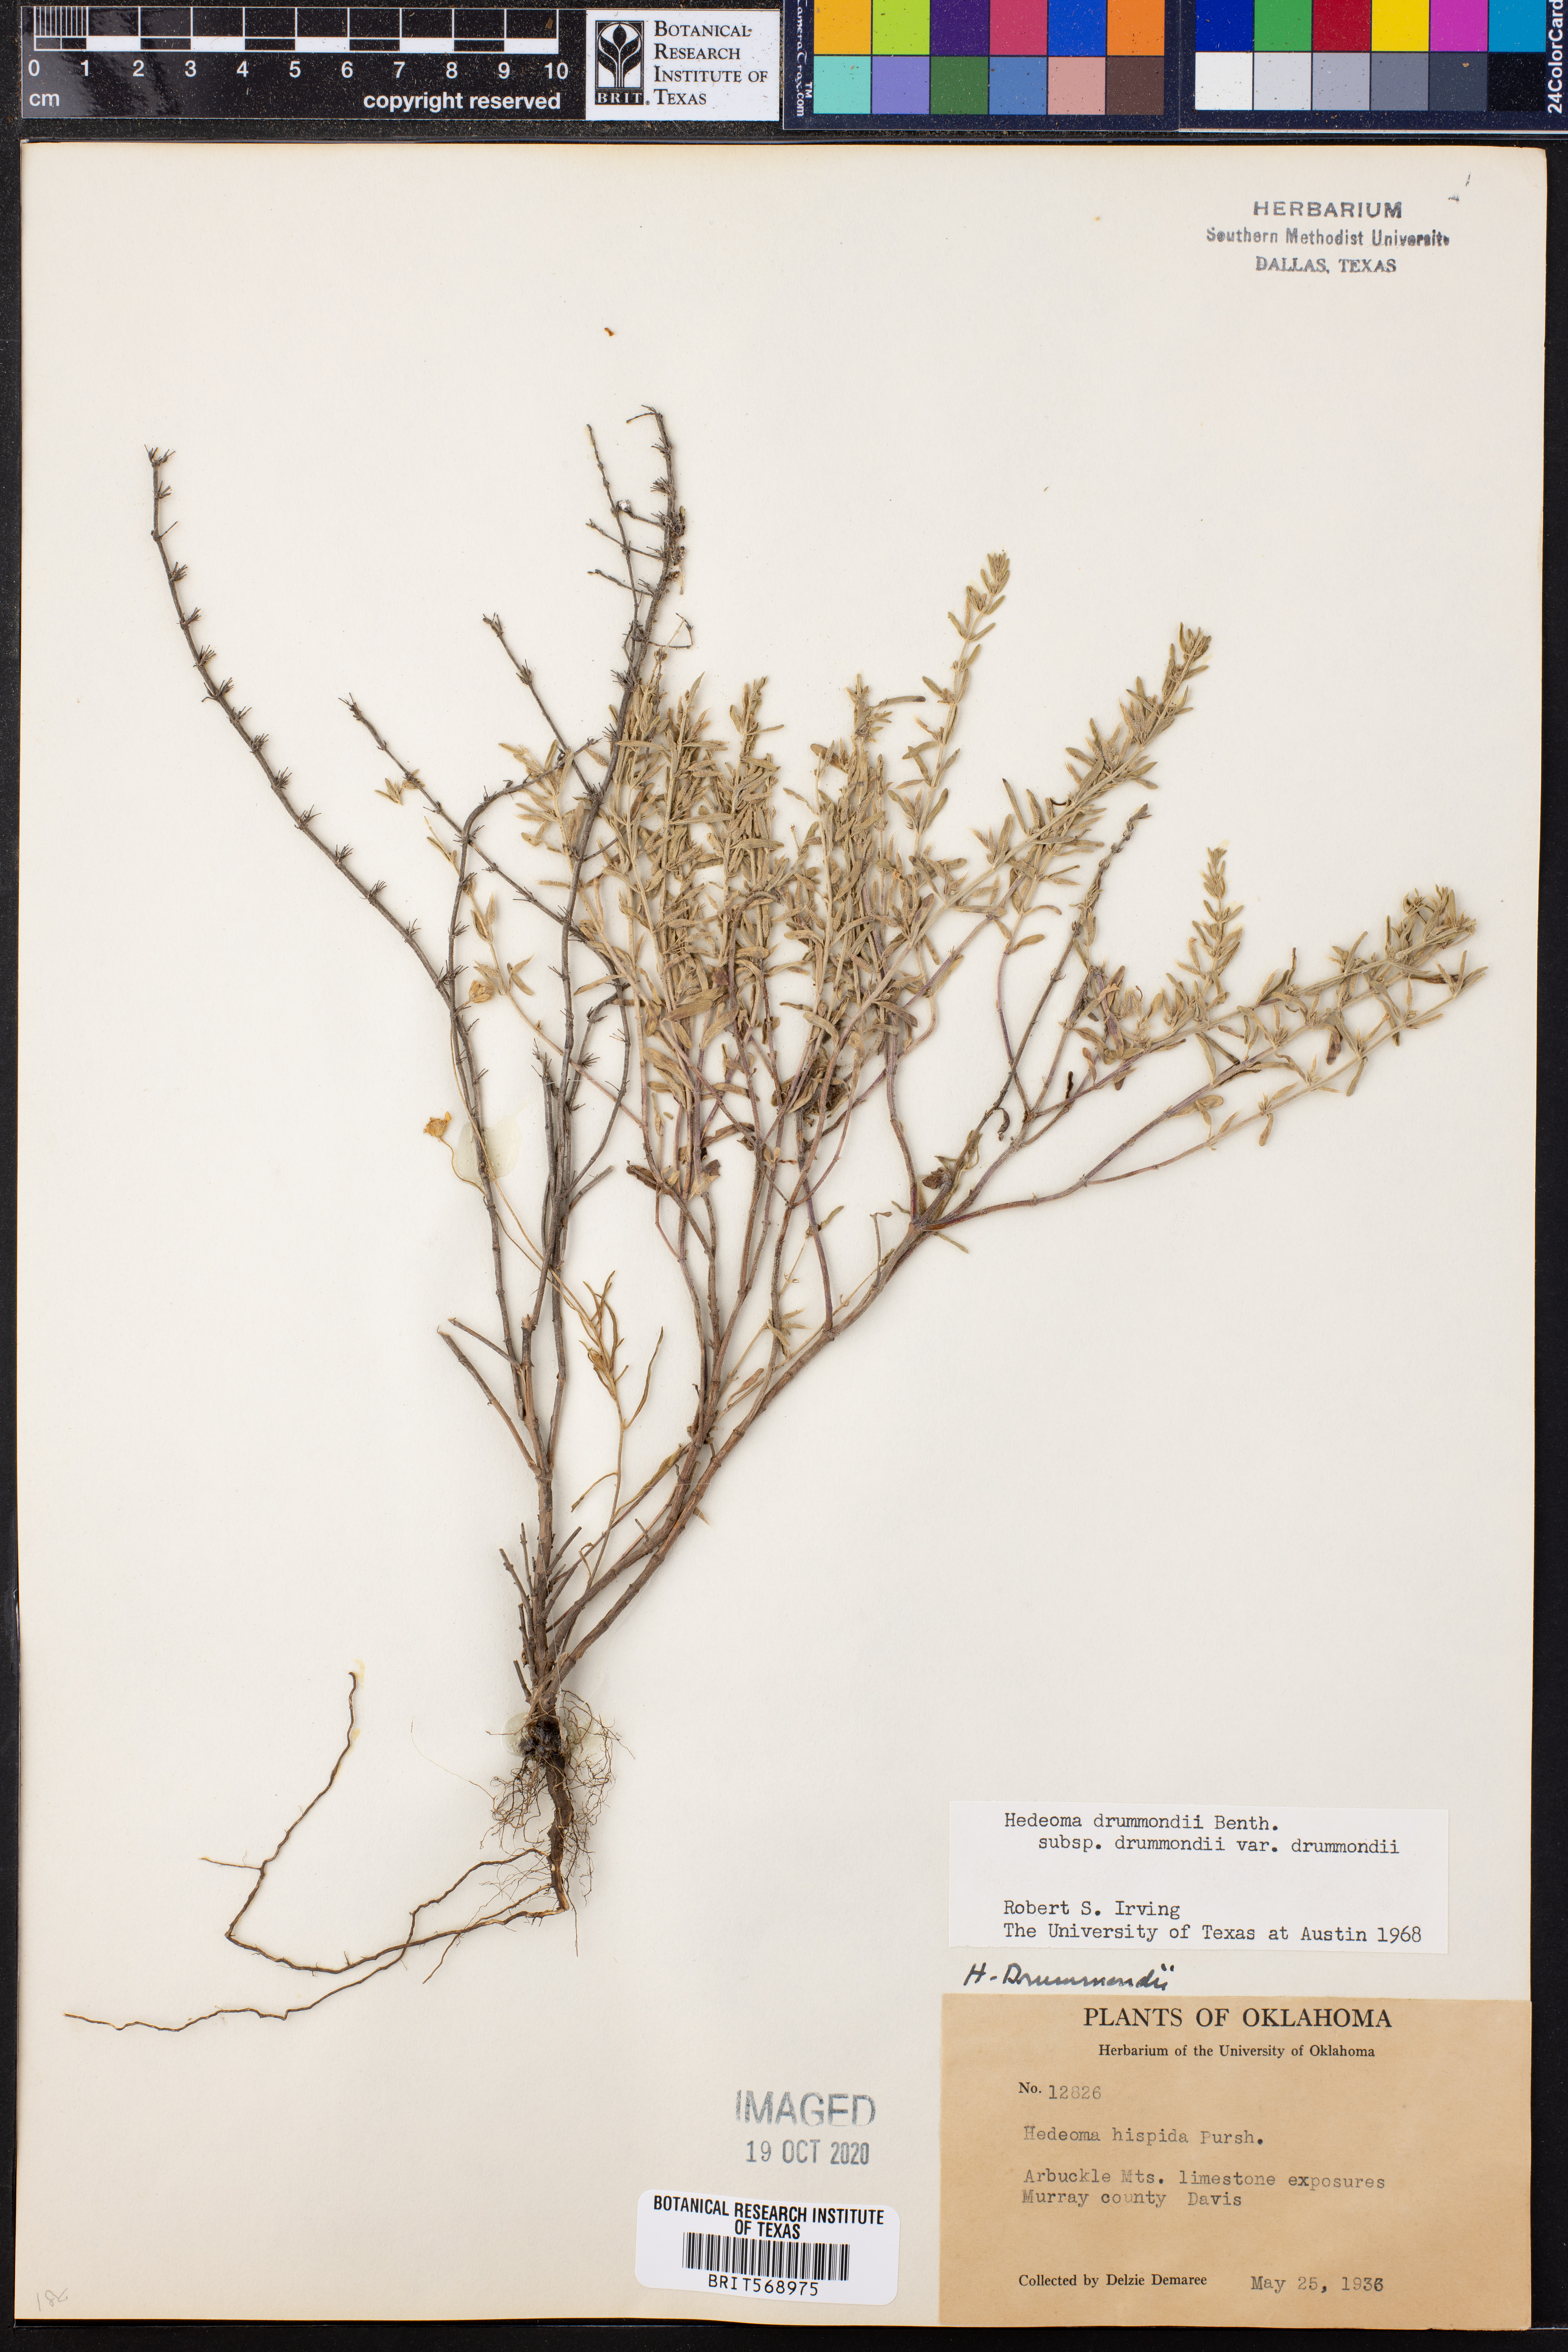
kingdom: Plantae
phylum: Tracheophyta
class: Magnoliopsida
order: Lamiales
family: Lamiaceae
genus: Hedeoma
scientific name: Hedeoma drummondii
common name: New mexico pennyroyal
